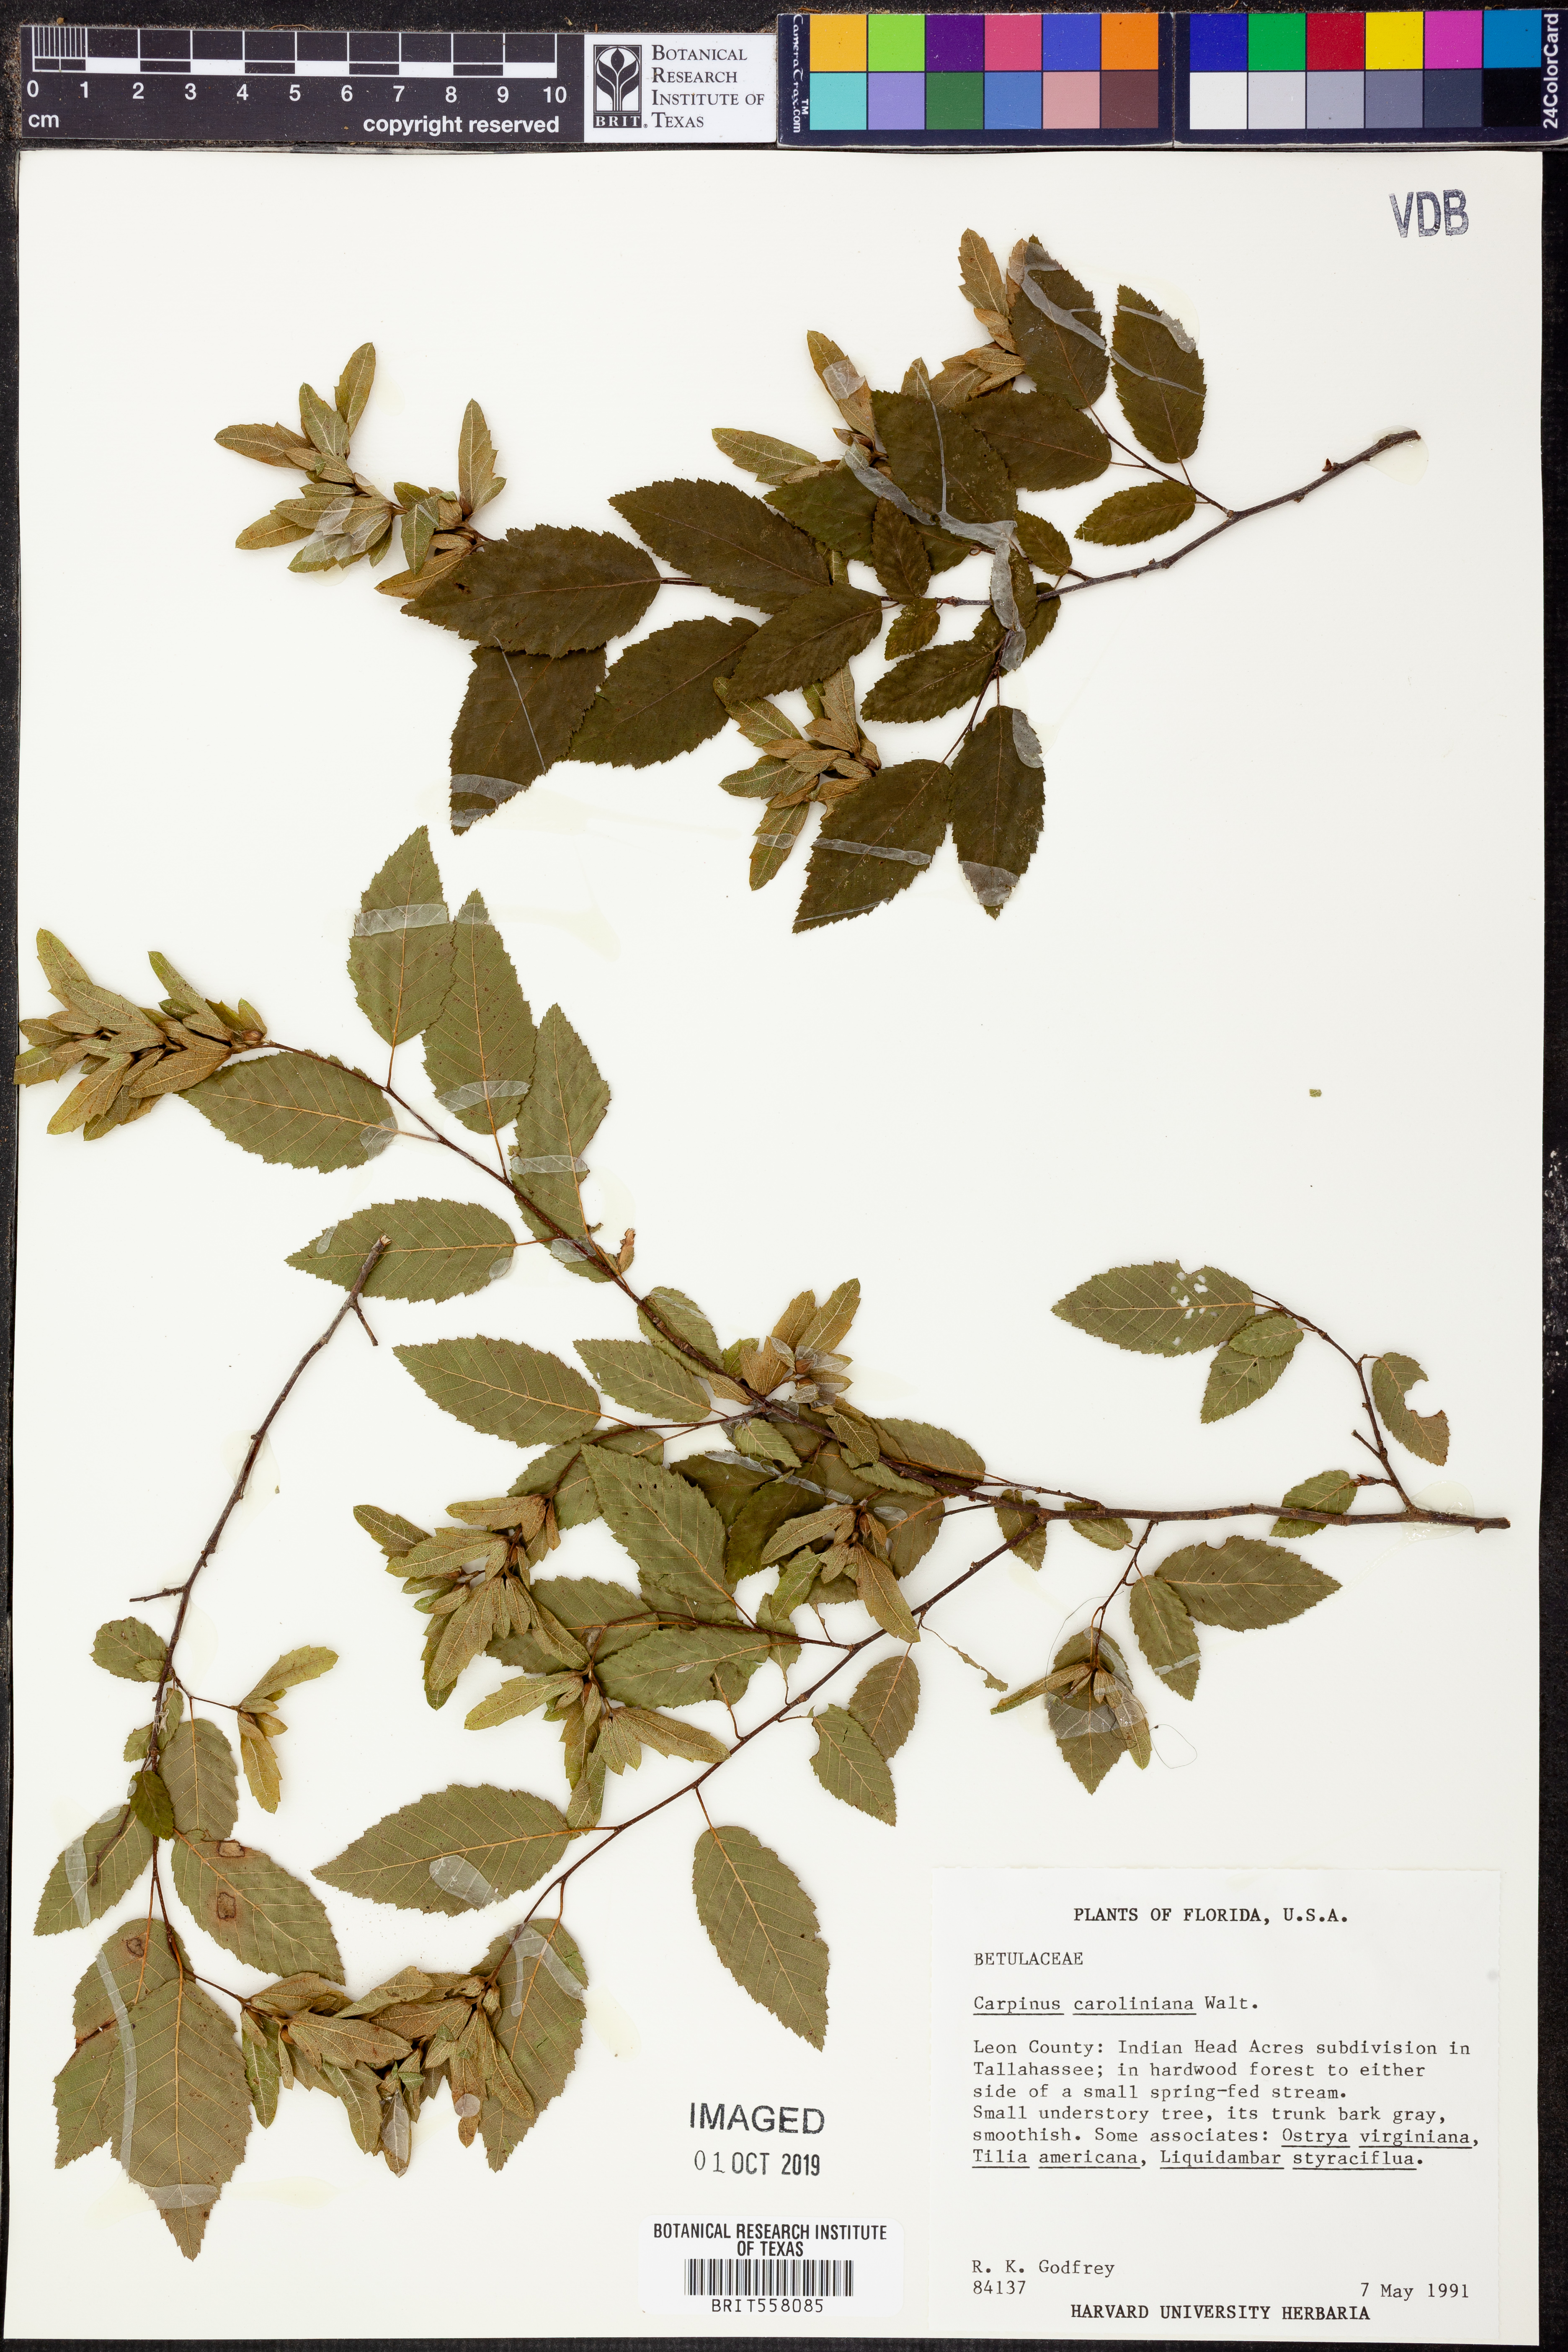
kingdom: Plantae
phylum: Tracheophyta
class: Magnoliopsida
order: Fagales
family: Betulaceae
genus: Carpinus
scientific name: Carpinus caroliniana
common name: American hornbeam
